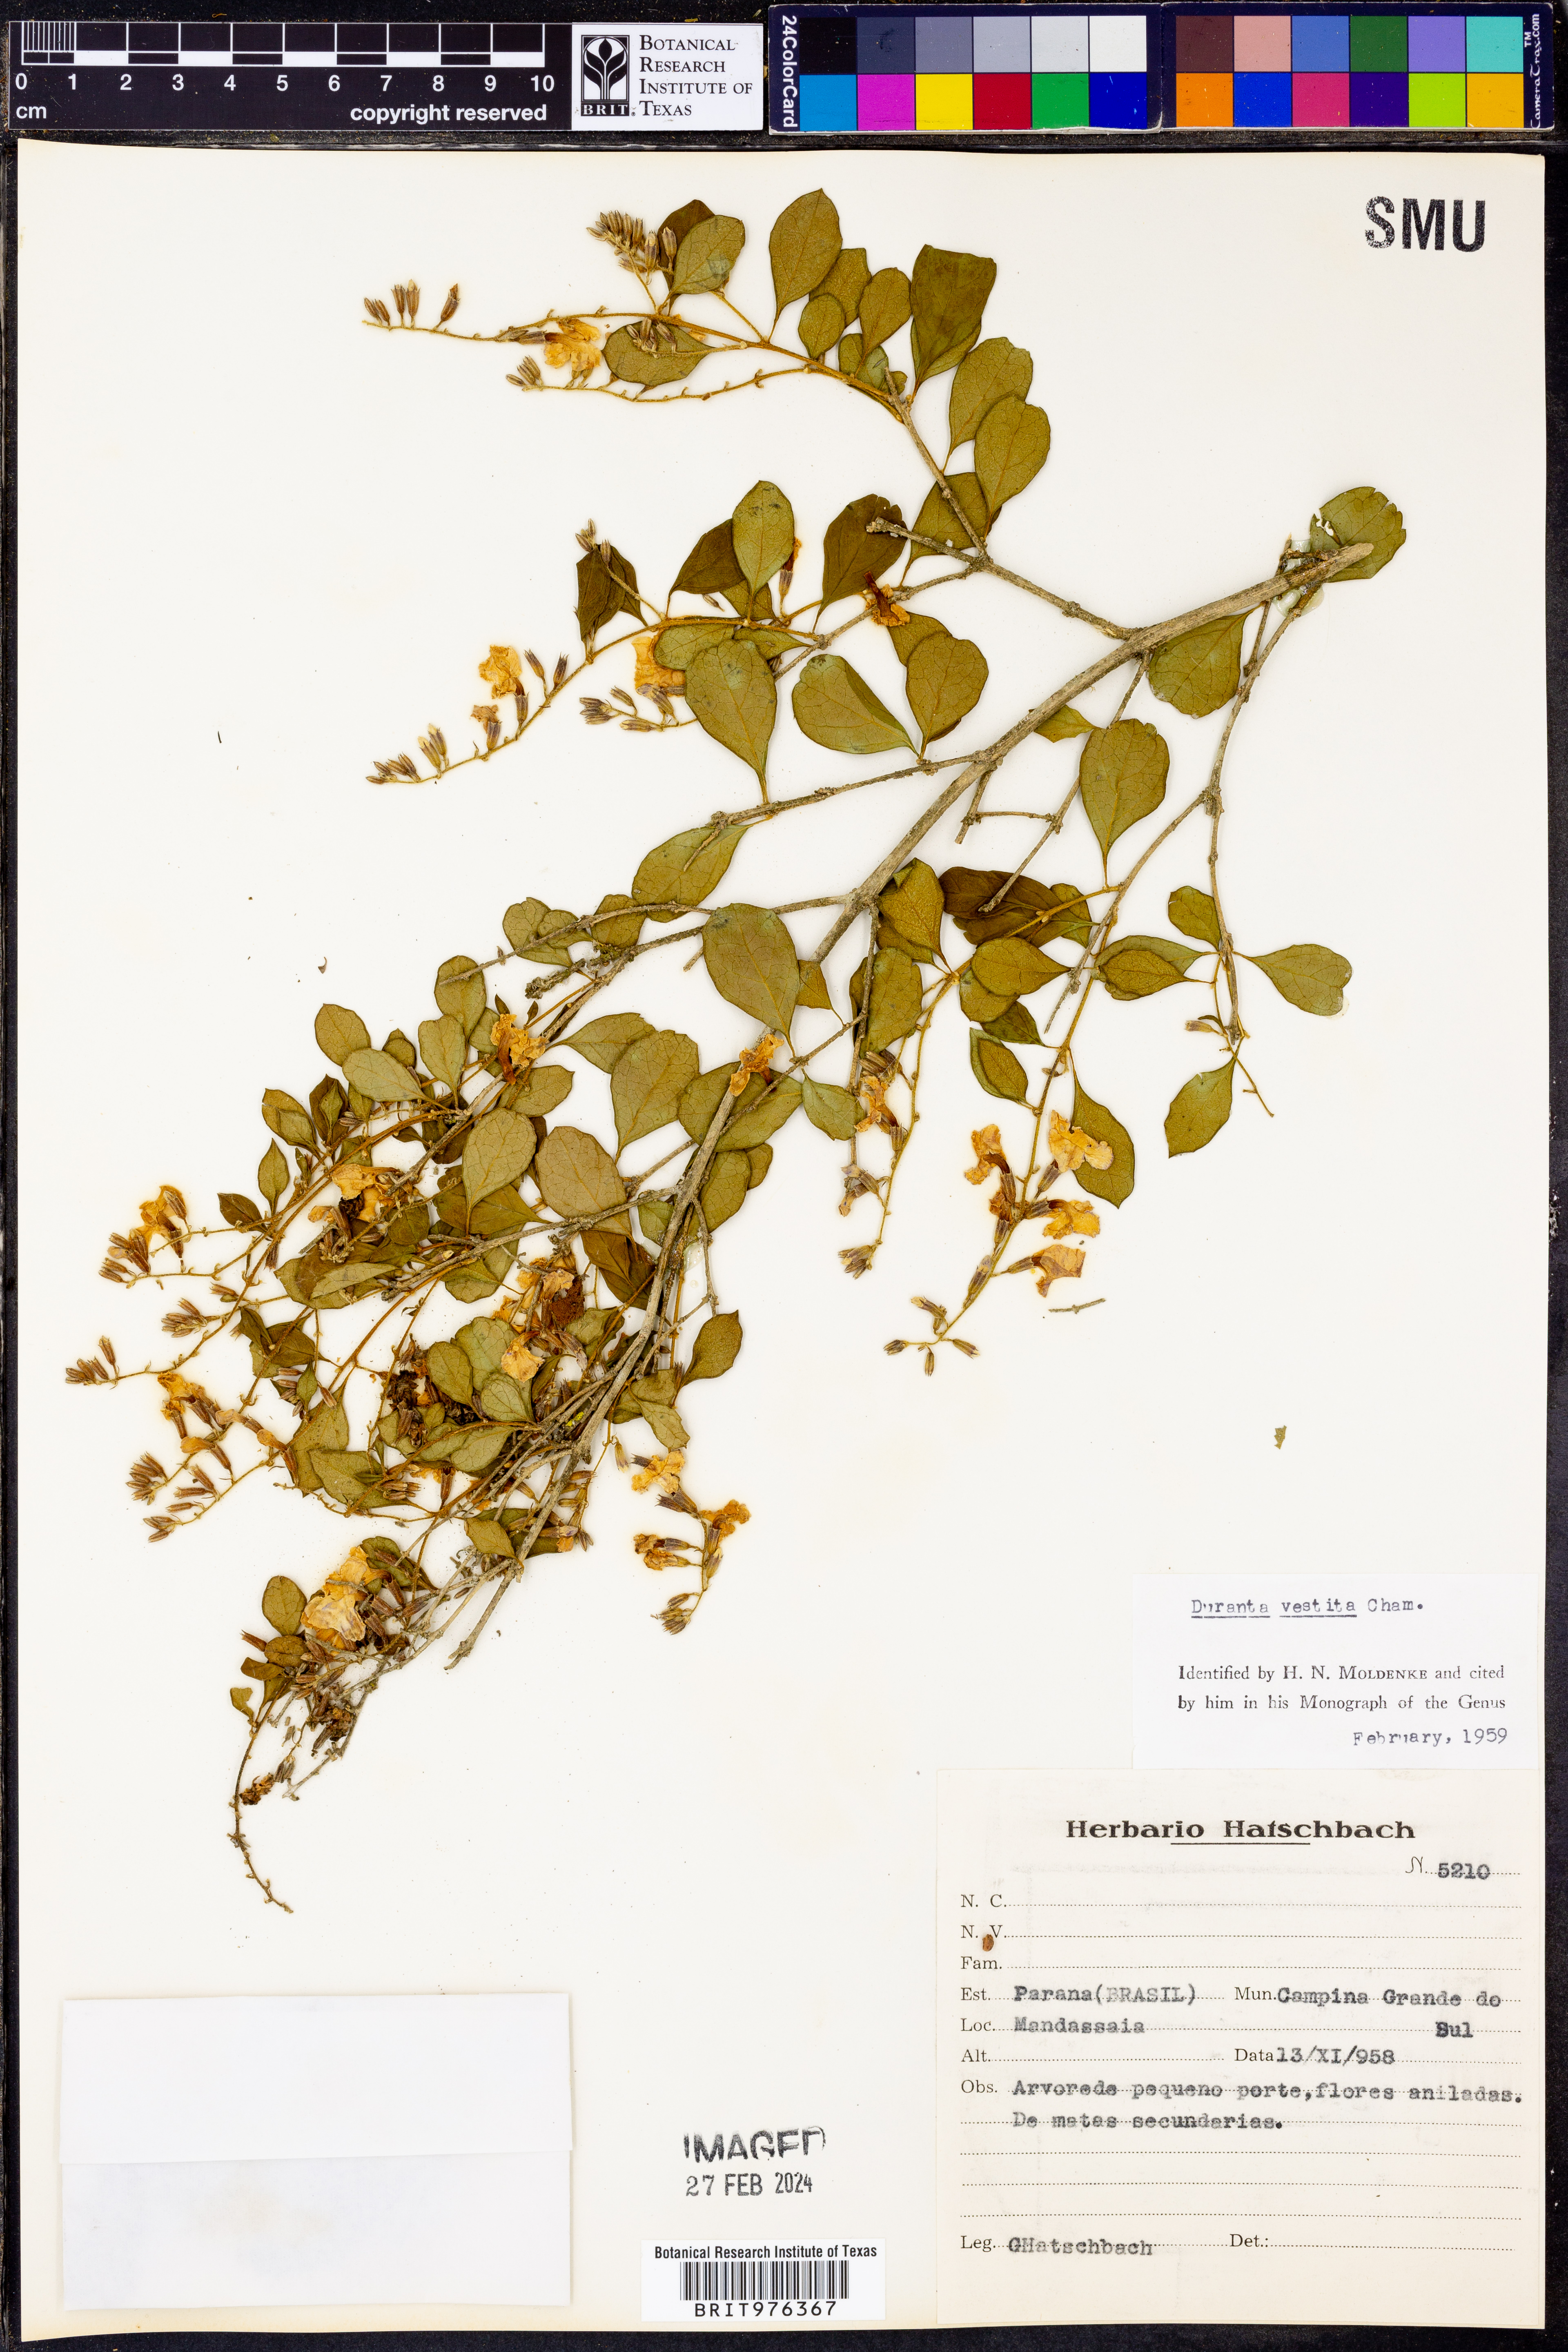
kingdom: Plantae
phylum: Tracheophyta
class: Magnoliopsida
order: Lamiales
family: Verbenaceae
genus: Duranta
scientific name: Duranta
